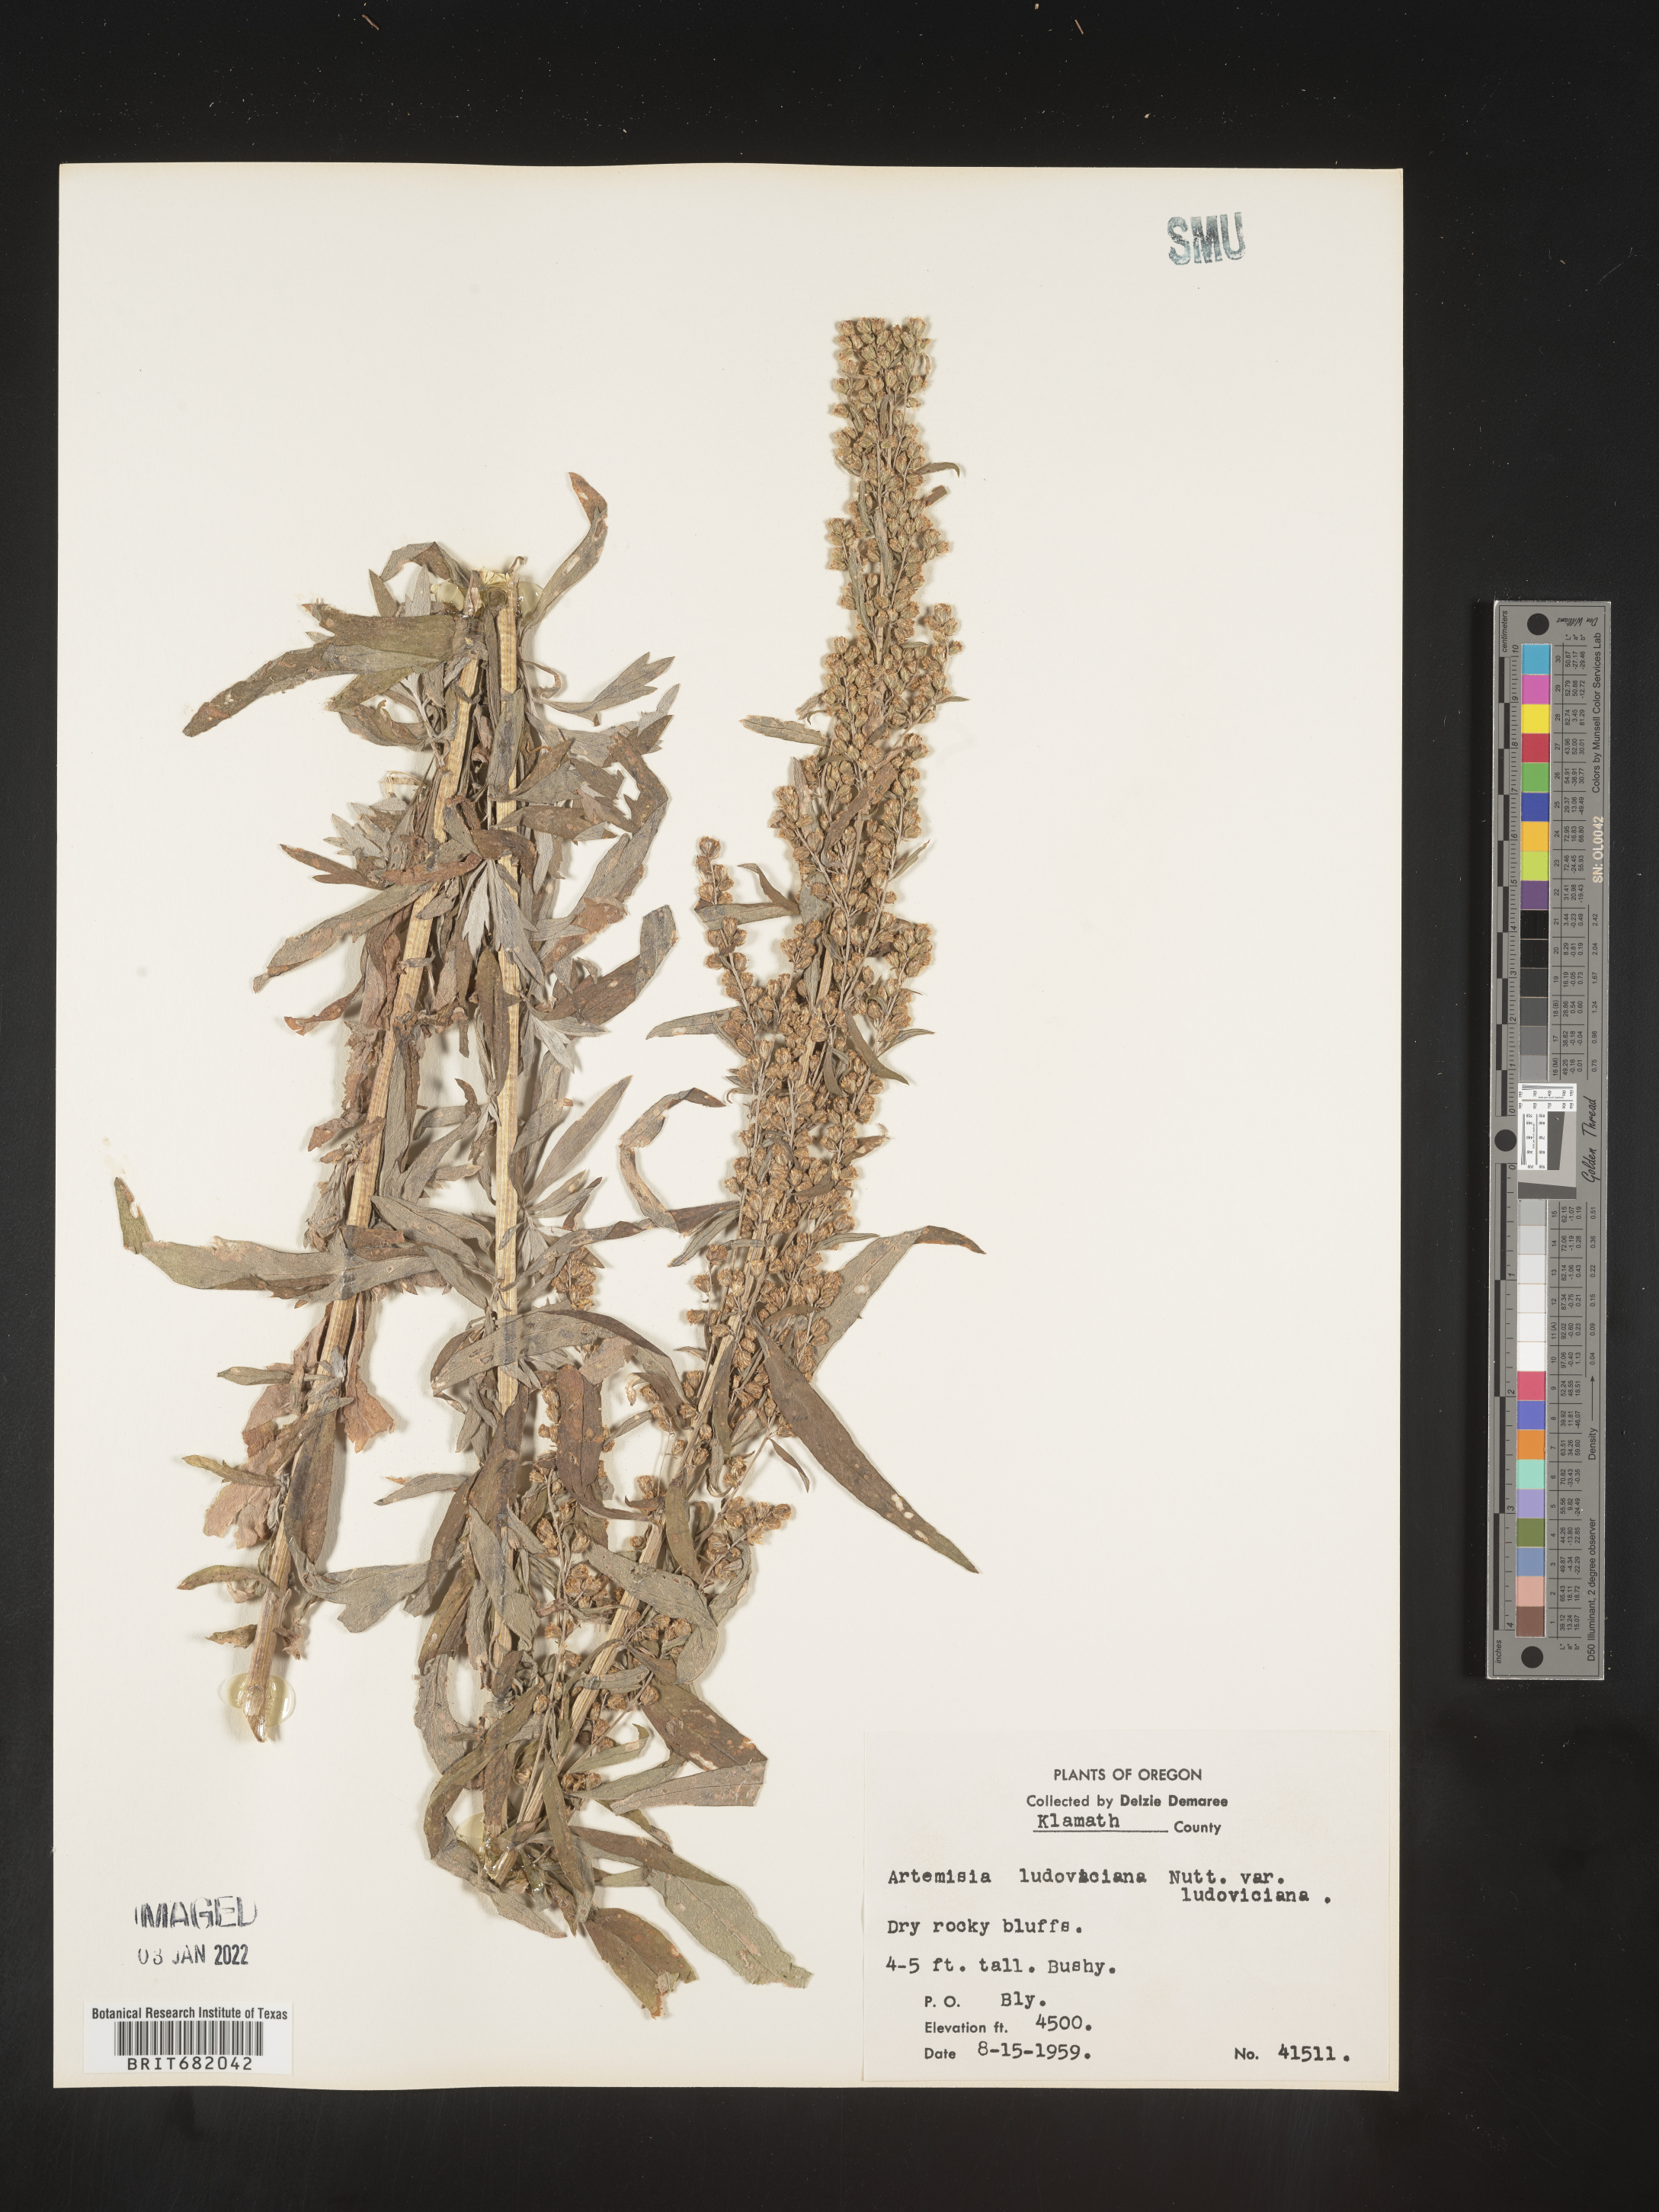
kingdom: Plantae
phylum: Tracheophyta
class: Magnoliopsida
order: Asterales
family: Asteraceae
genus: Artemisia
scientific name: Artemisia ludoviciana
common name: Western mugwort
